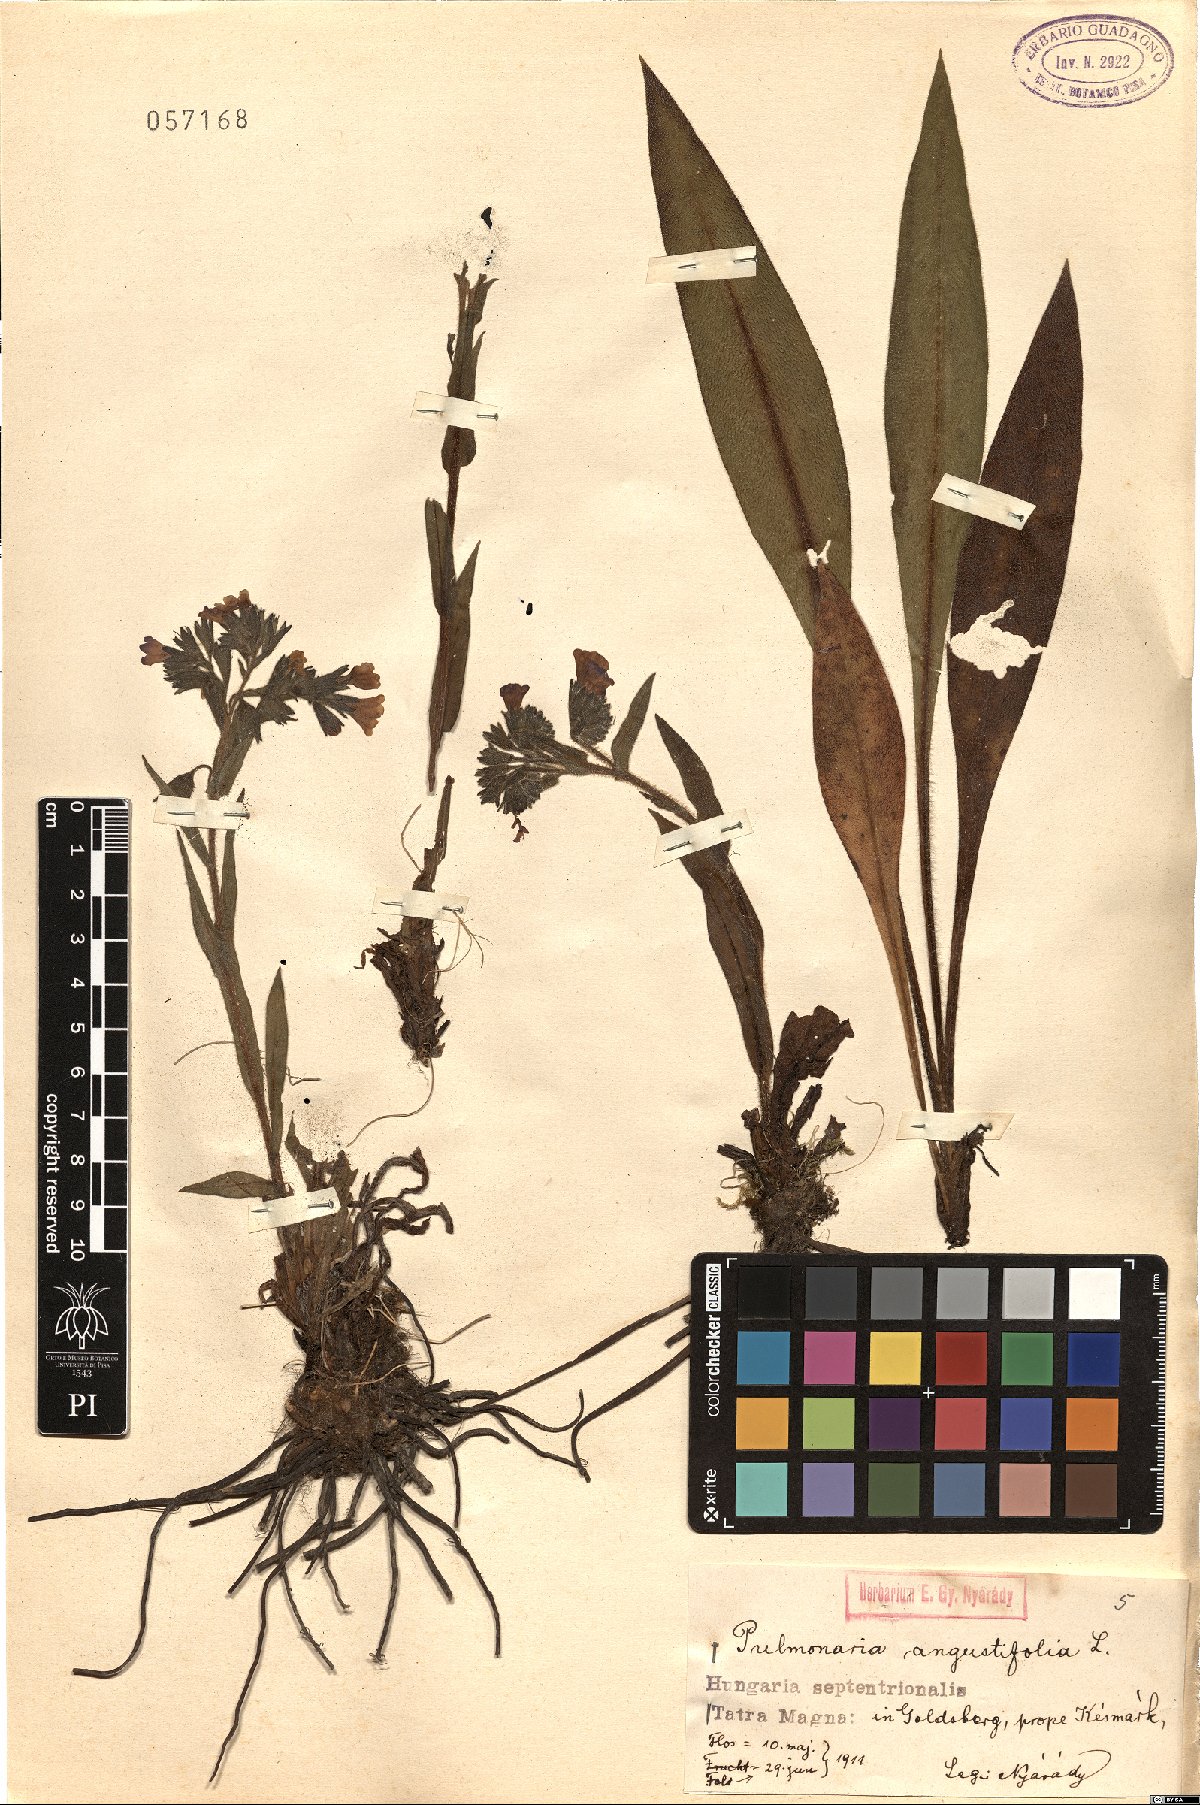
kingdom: Plantae
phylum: Tracheophyta
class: Magnoliopsida
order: Boraginales
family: Boraginaceae
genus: Pulmonaria
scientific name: Pulmonaria angustifolia
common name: Blue cowslip
